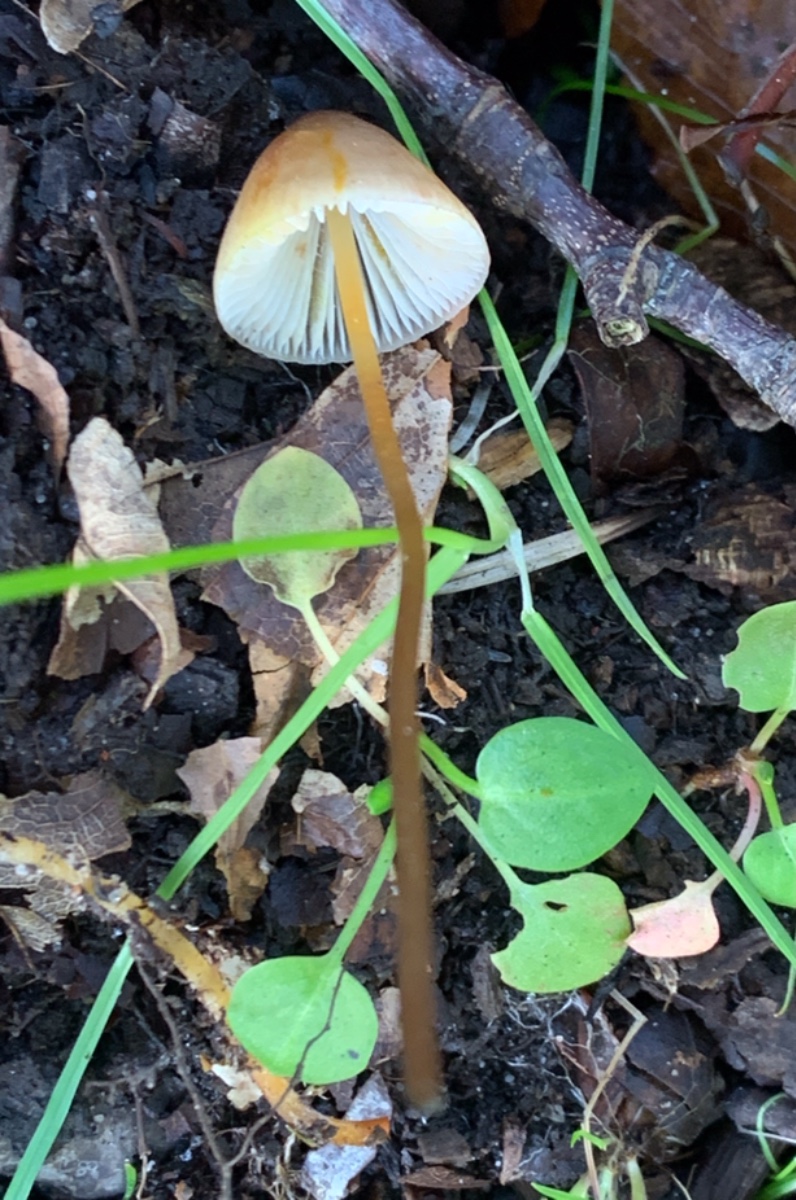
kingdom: Fungi
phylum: Basidiomycota
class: Agaricomycetes
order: Agaricales
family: Mycenaceae
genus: Mycena
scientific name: Mycena crocata
